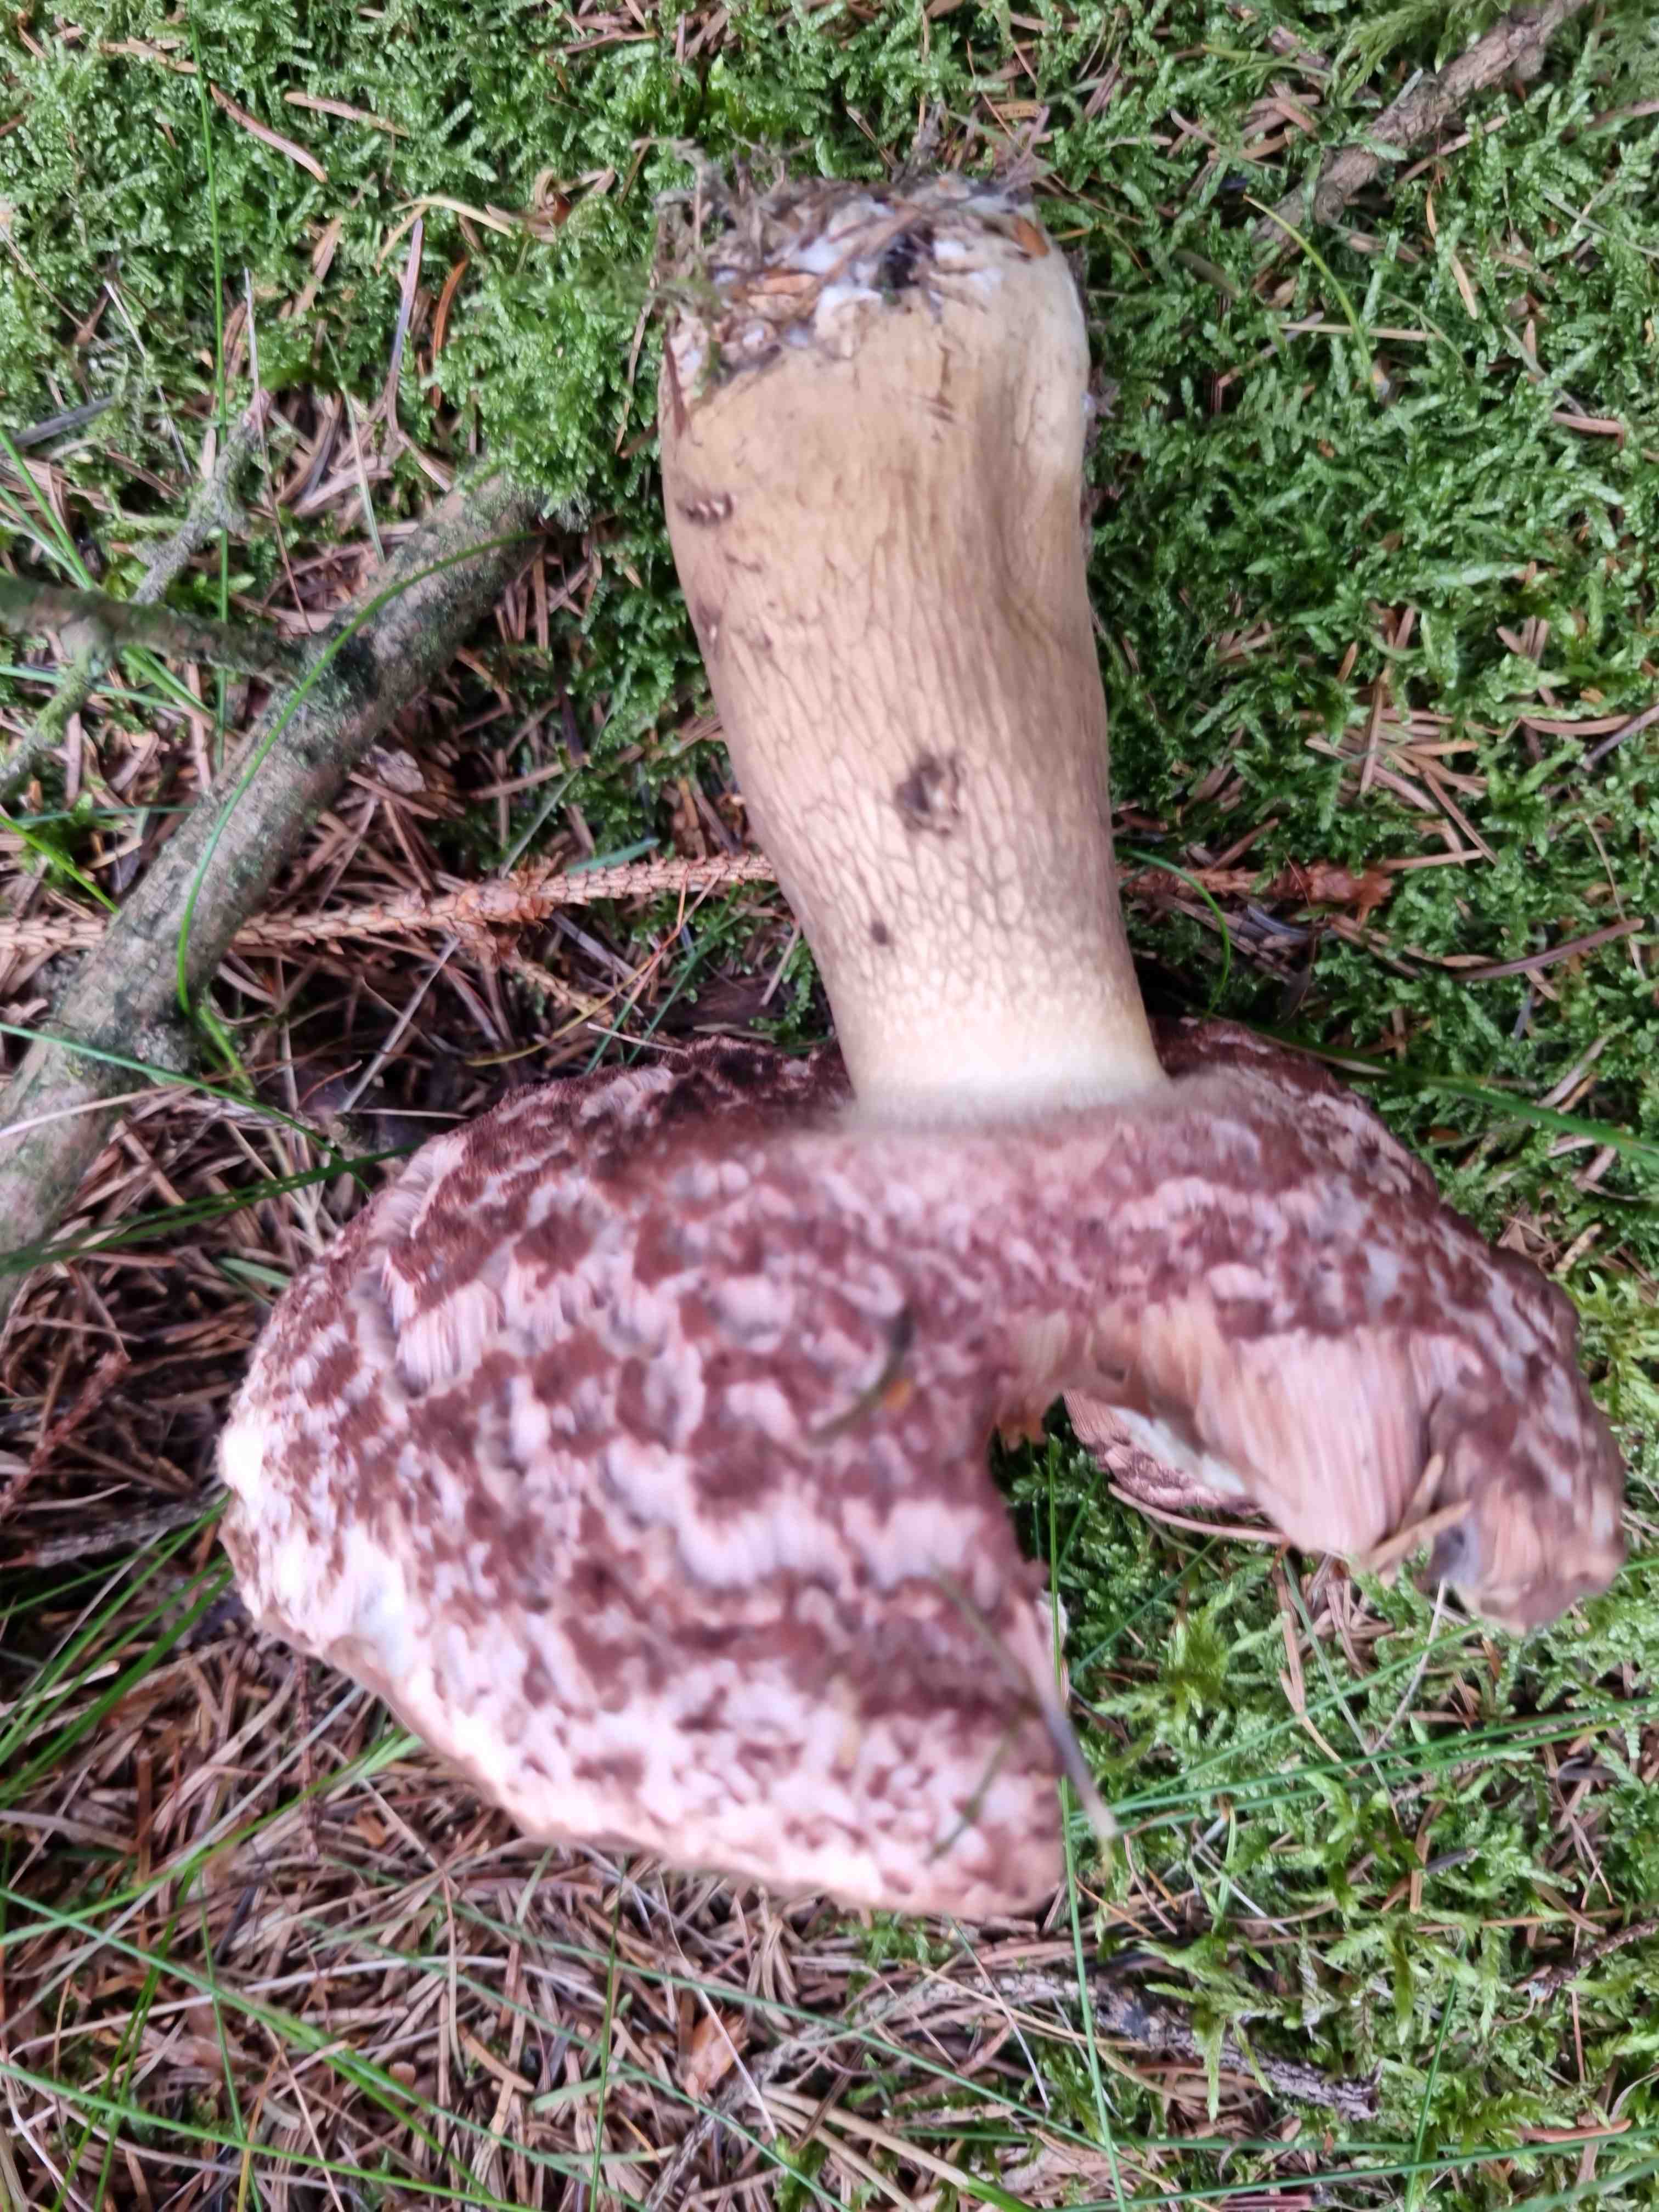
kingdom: Fungi
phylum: Basidiomycota
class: Agaricomycetes
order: Boletales
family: Boletaceae
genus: Tylopilus
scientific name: Tylopilus felleus
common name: galderørhat
